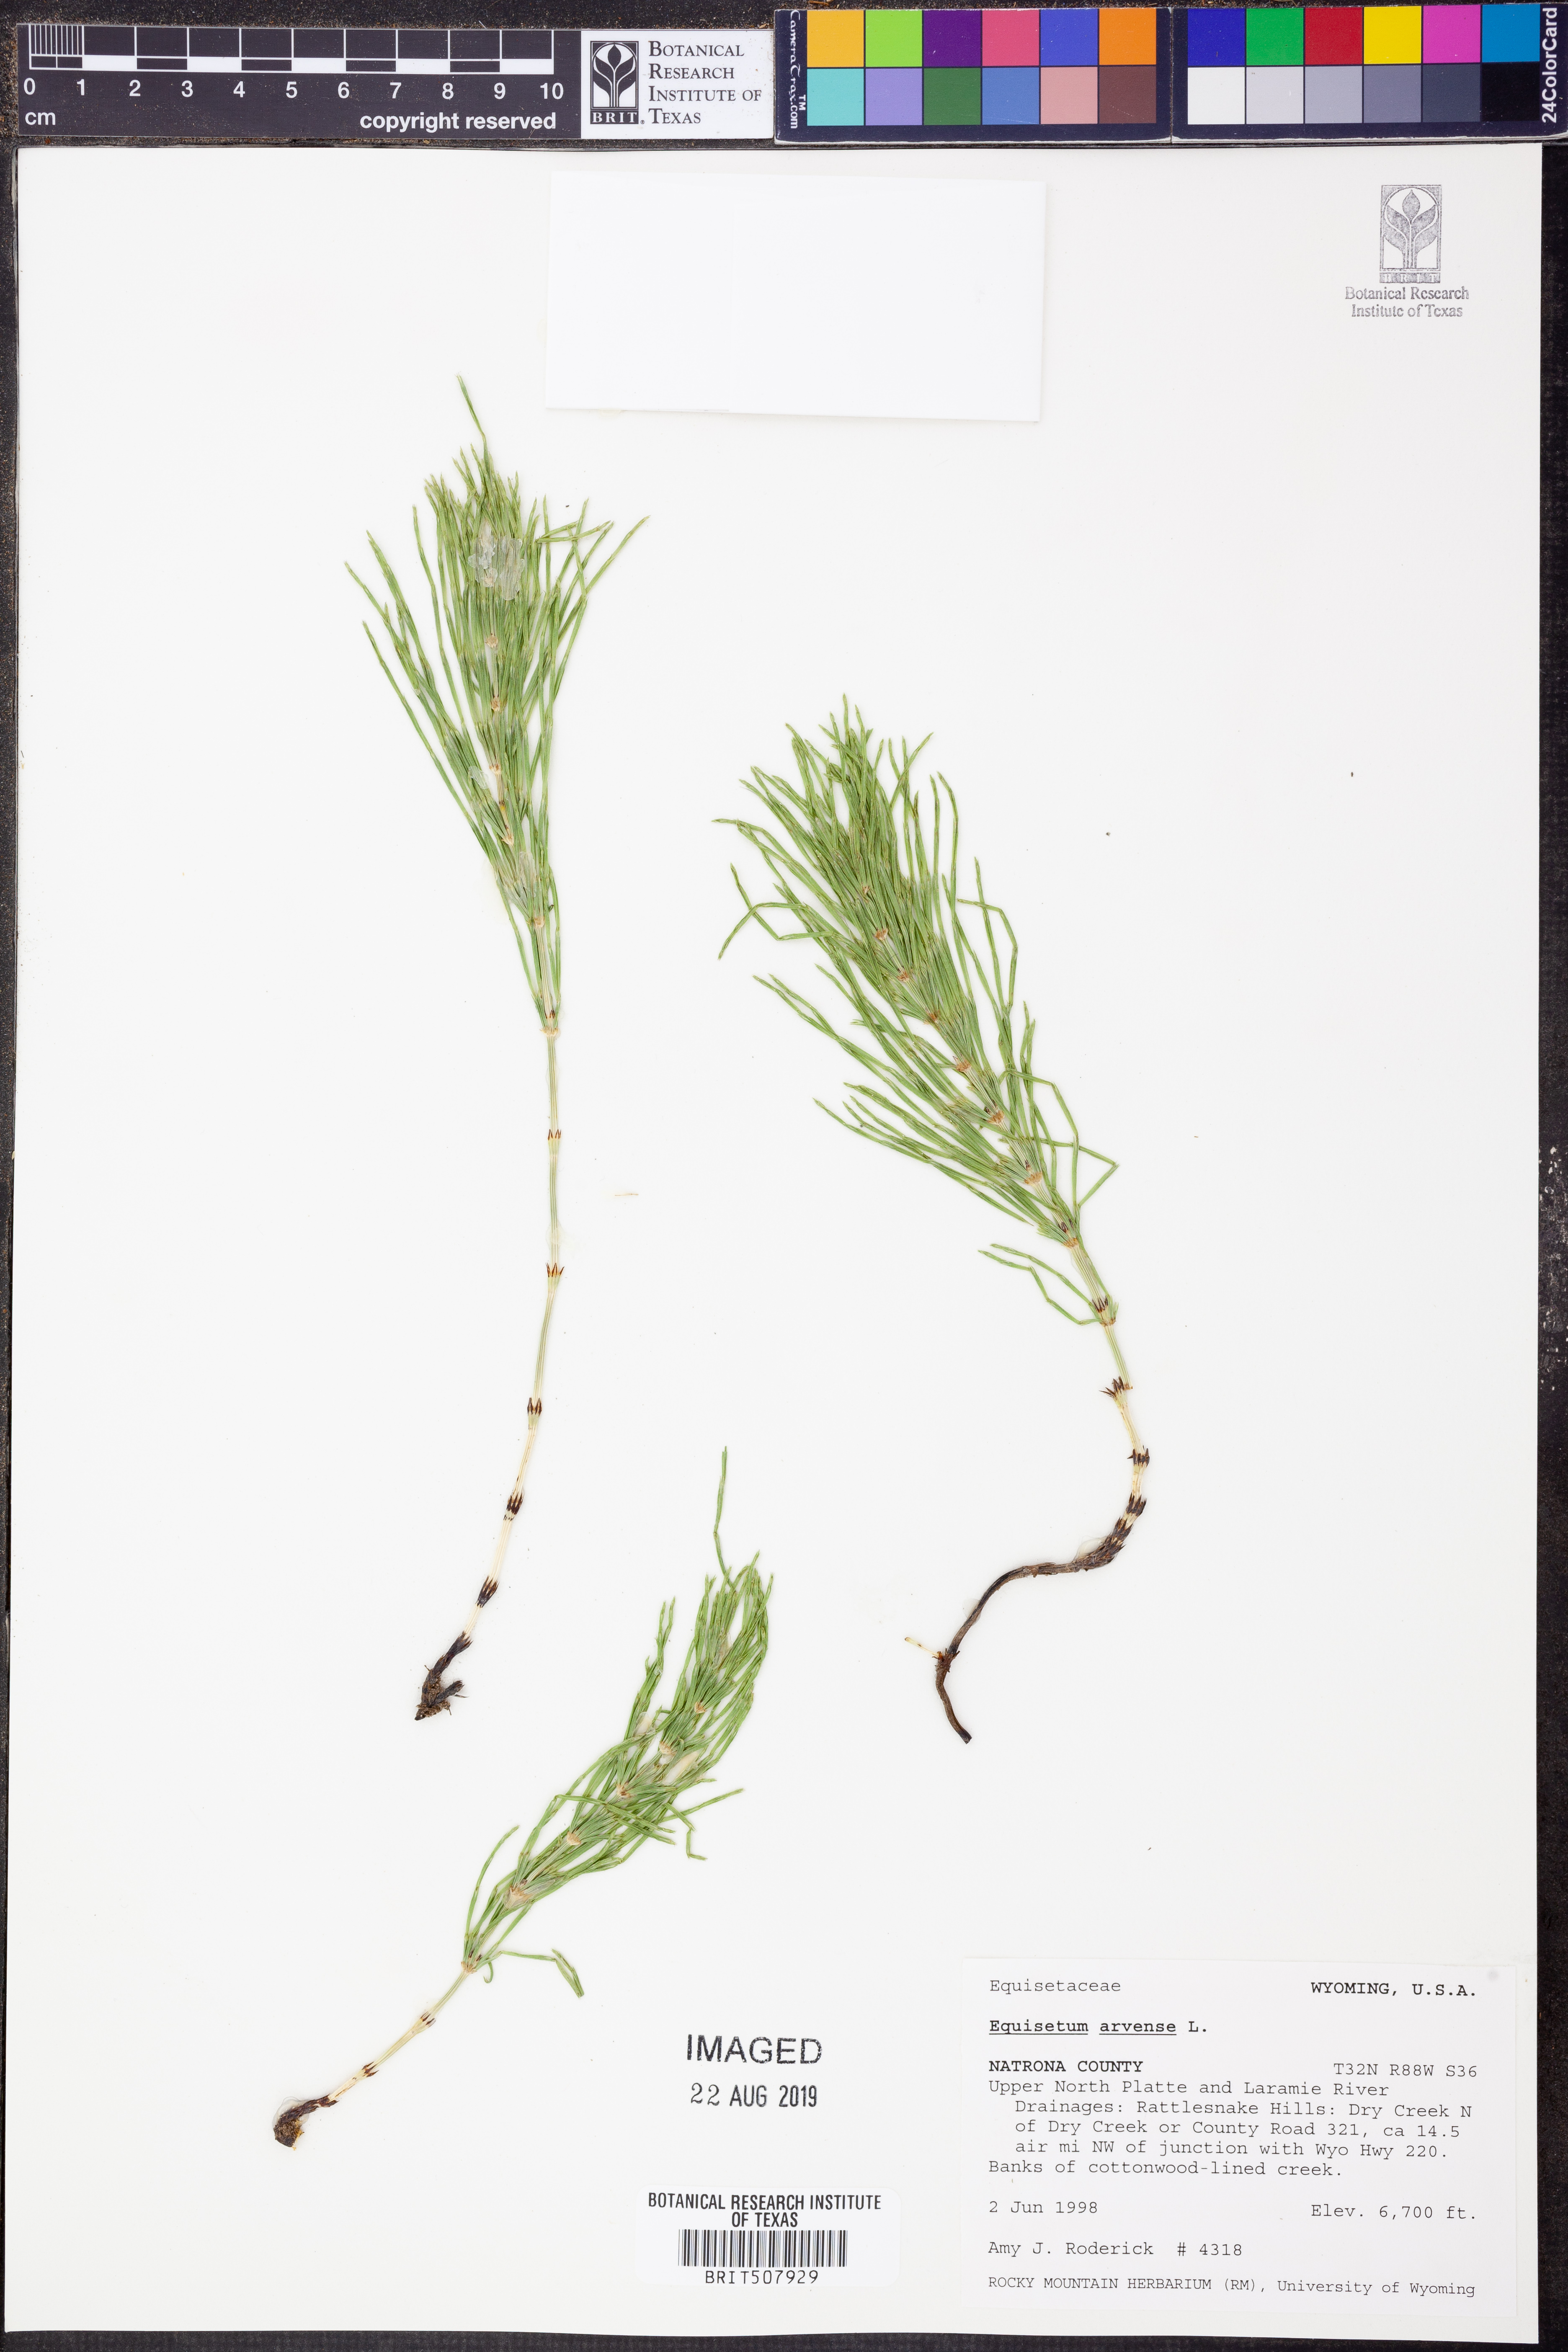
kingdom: Plantae
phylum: Tracheophyta
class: Polypodiopsida
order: Equisetales
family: Equisetaceae
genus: Equisetum
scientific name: Equisetum arvense
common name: Field horsetail
